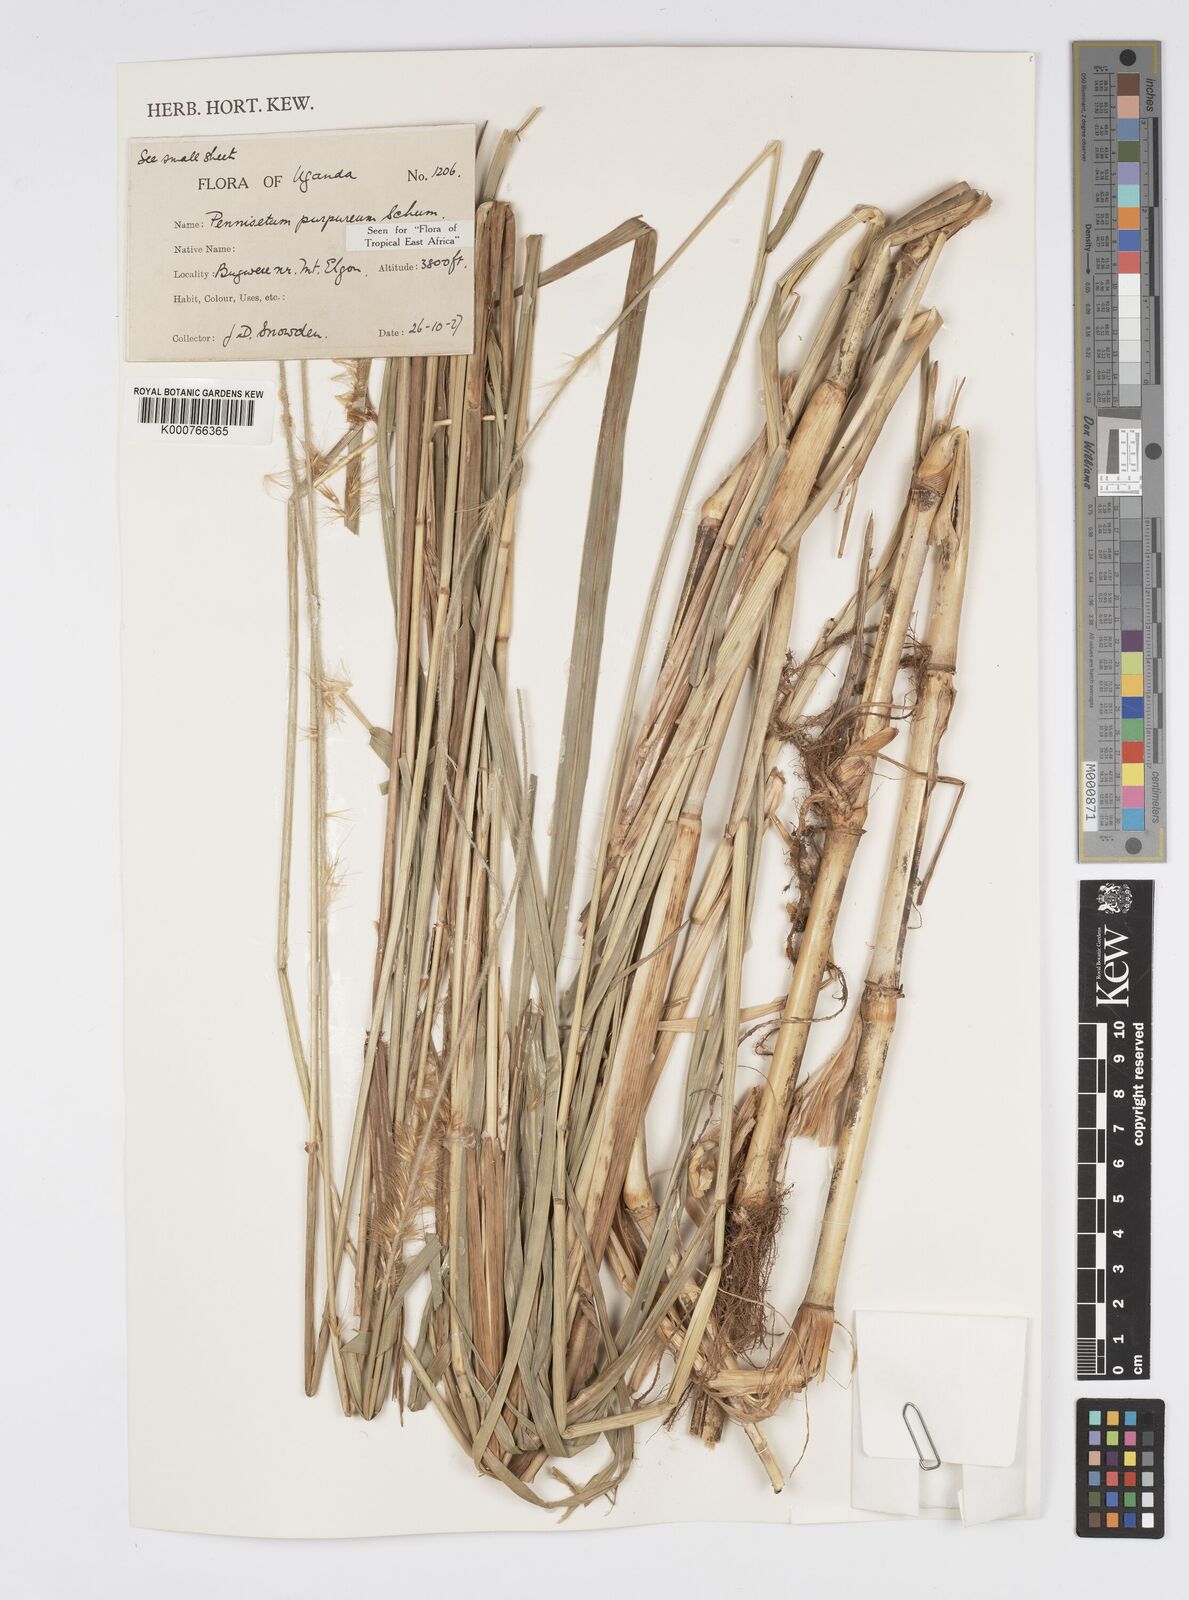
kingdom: Plantae
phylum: Tracheophyta
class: Liliopsida
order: Poales
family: Poaceae
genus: Cenchrus
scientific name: Cenchrus purpureus
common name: Elephant grass
